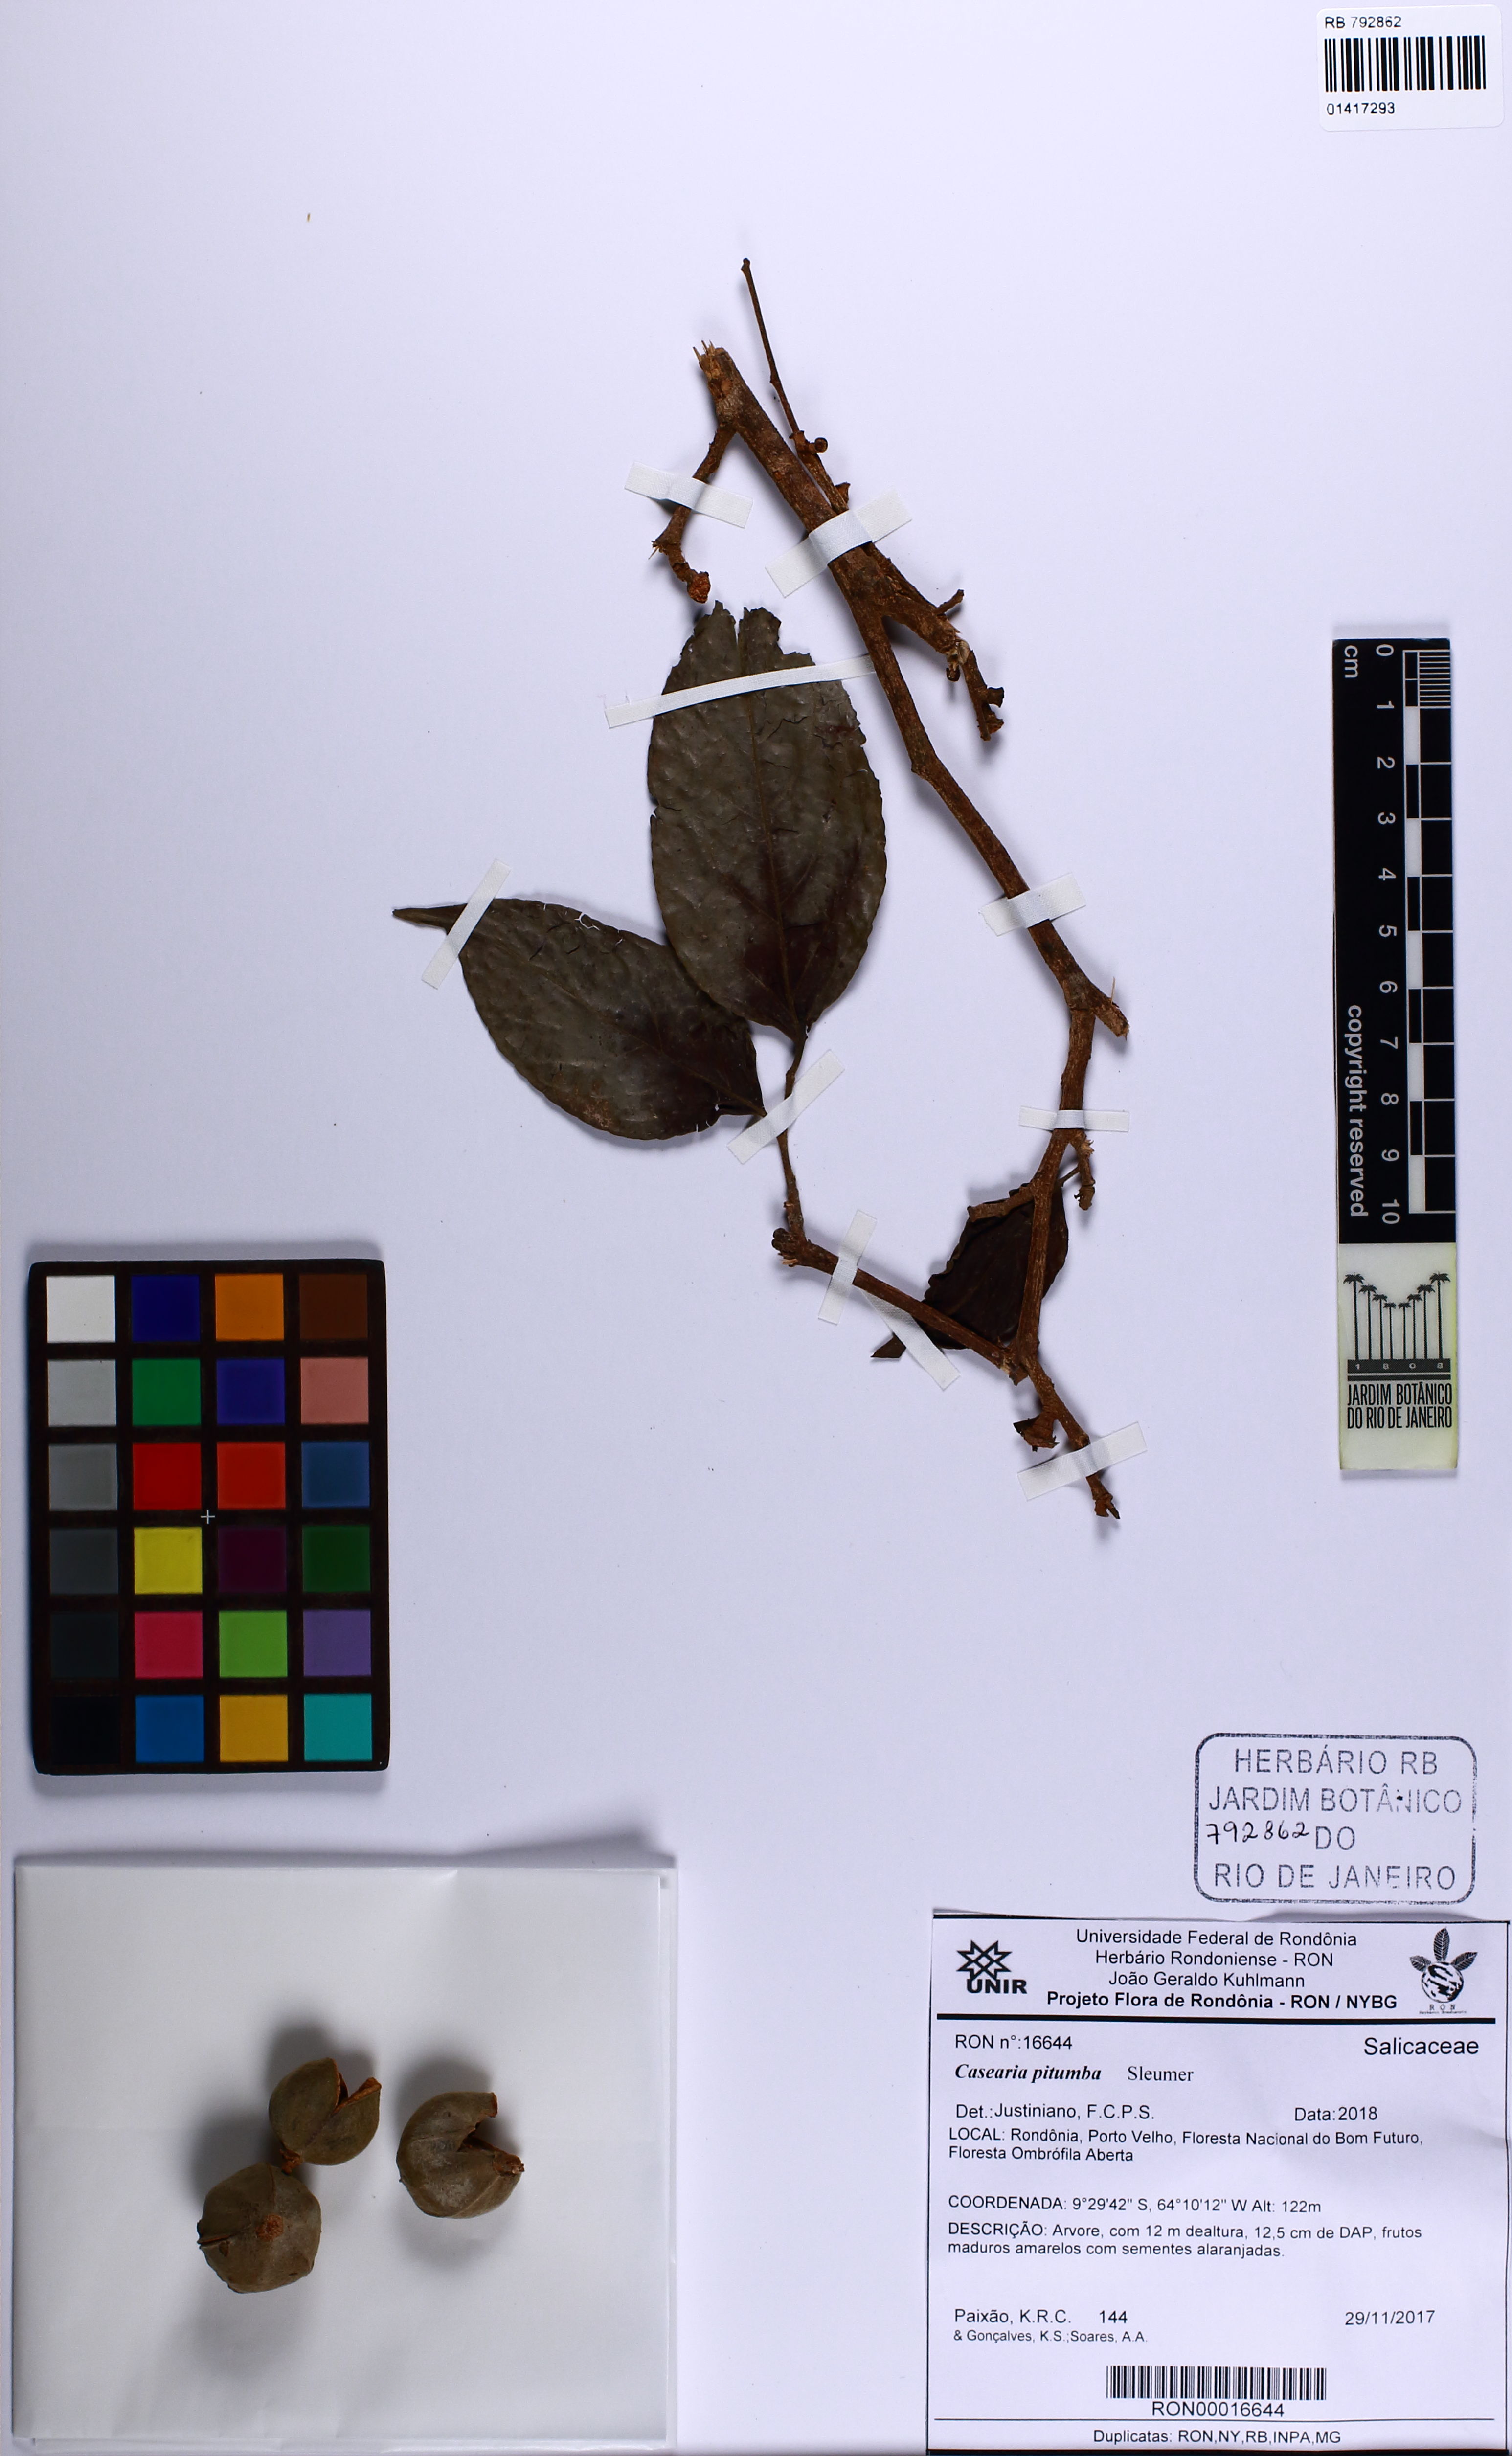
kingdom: Plantae
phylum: Tracheophyta
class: Magnoliopsida
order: Malpighiales
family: Salicaceae
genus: Casearia
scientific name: Casearia pitumba
